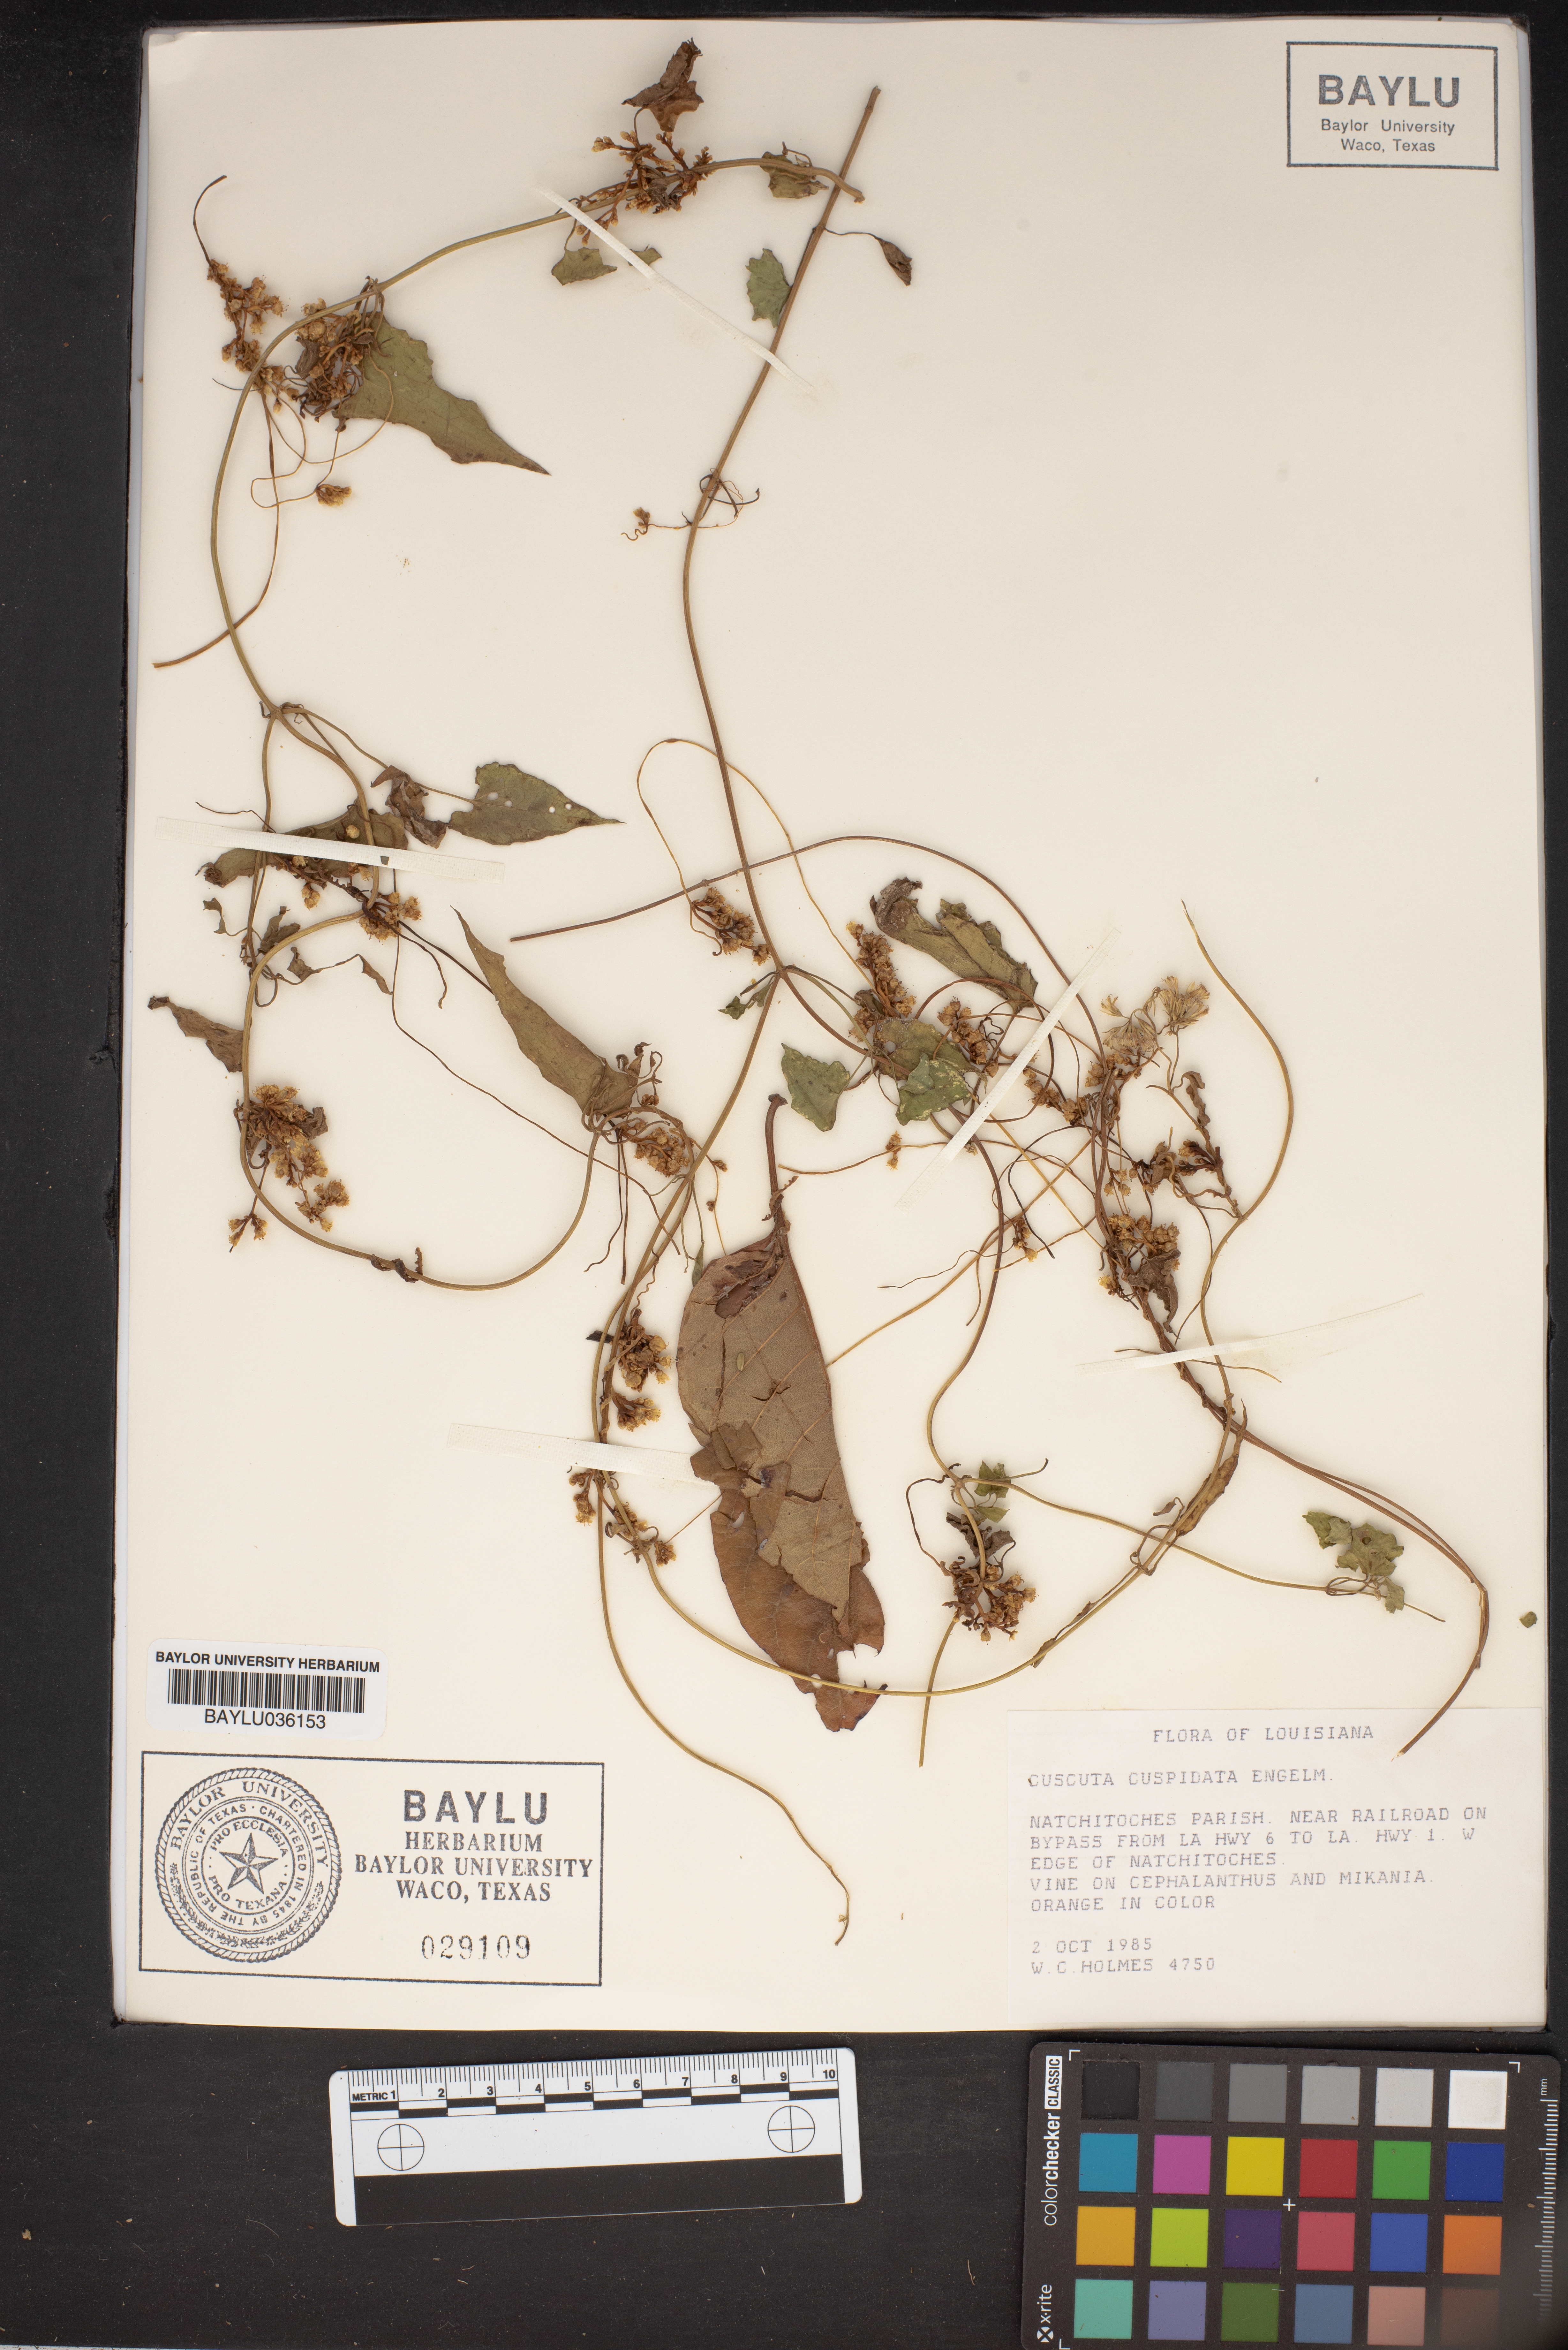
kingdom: Plantae
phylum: Tracheophyta
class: Magnoliopsida
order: Solanales
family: Convolvulaceae
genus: Cuscuta
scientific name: Cuscuta cuspidata
